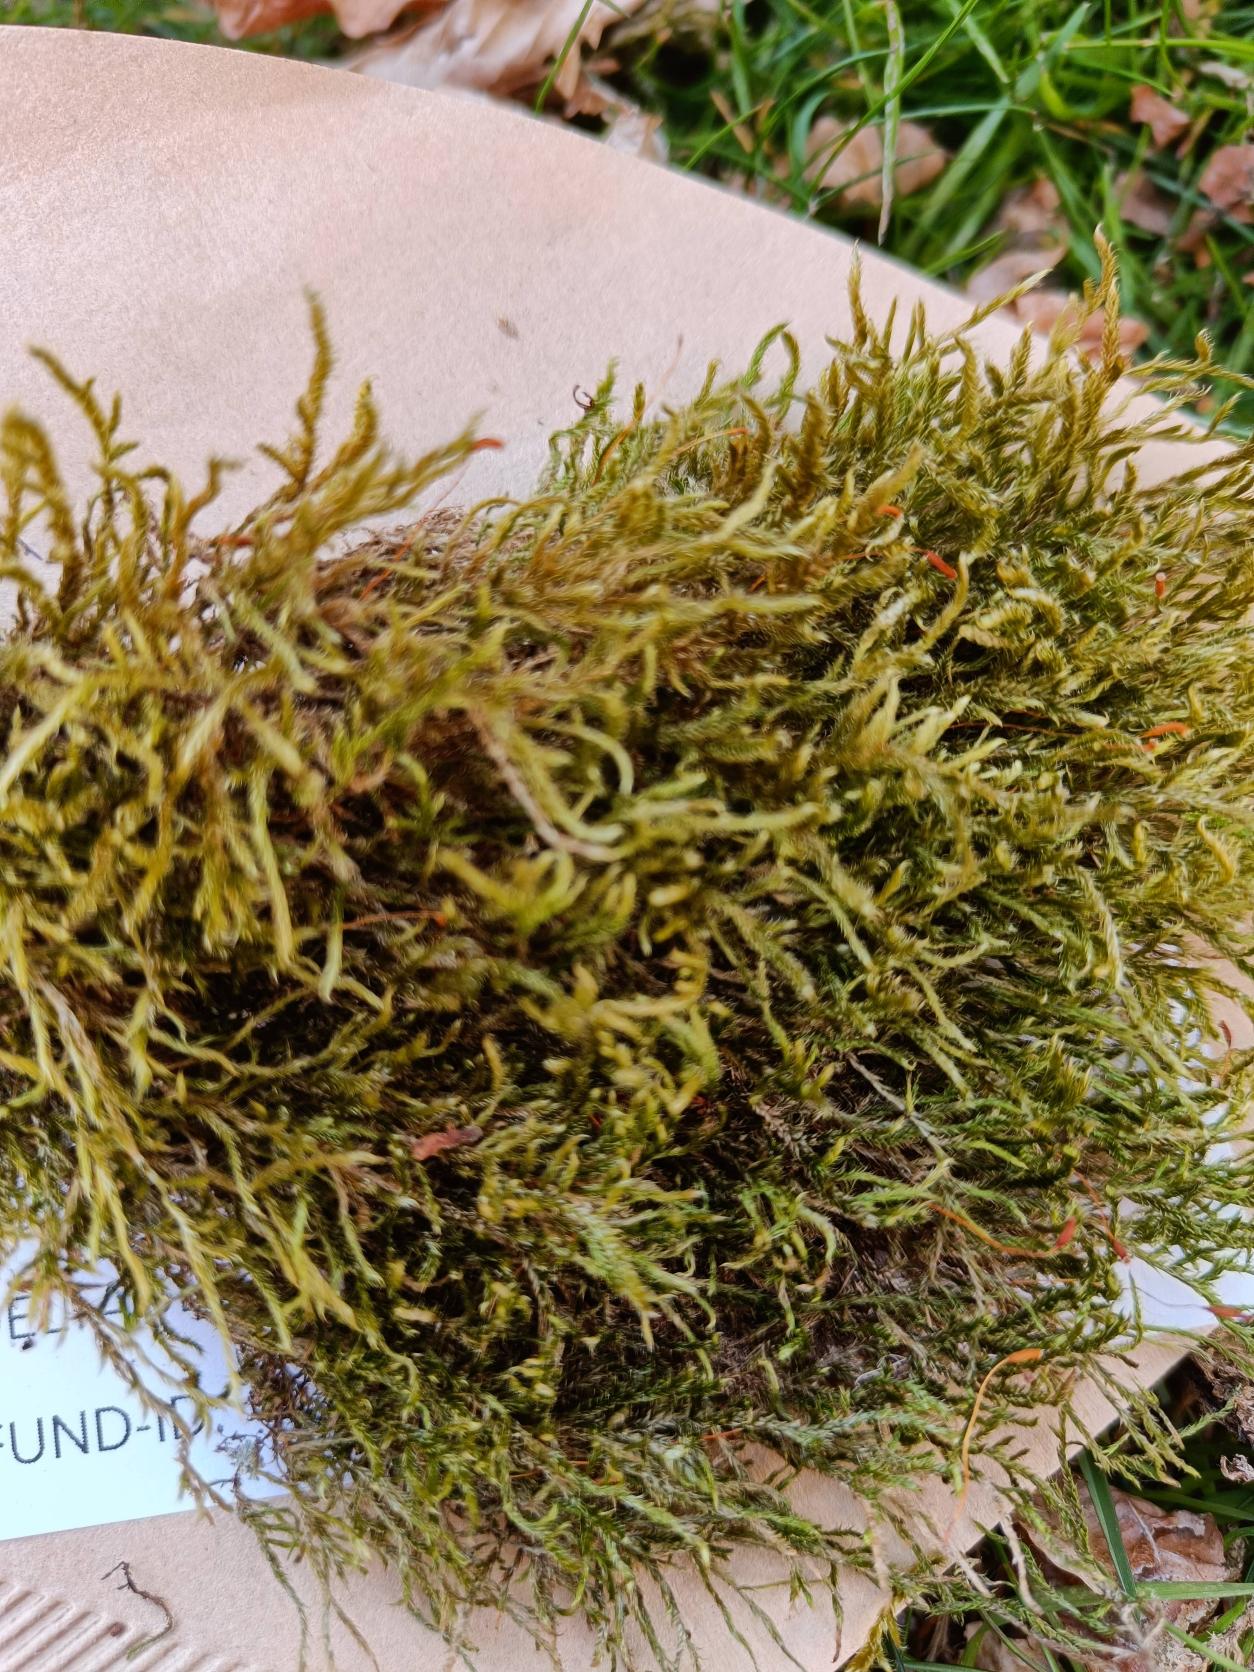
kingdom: Plantae
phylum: Bryophyta
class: Bryopsida
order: Hypnales
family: Hypnaceae
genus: Hypnum
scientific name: Hypnum cupressiforme
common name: Almindelig cypresmos
